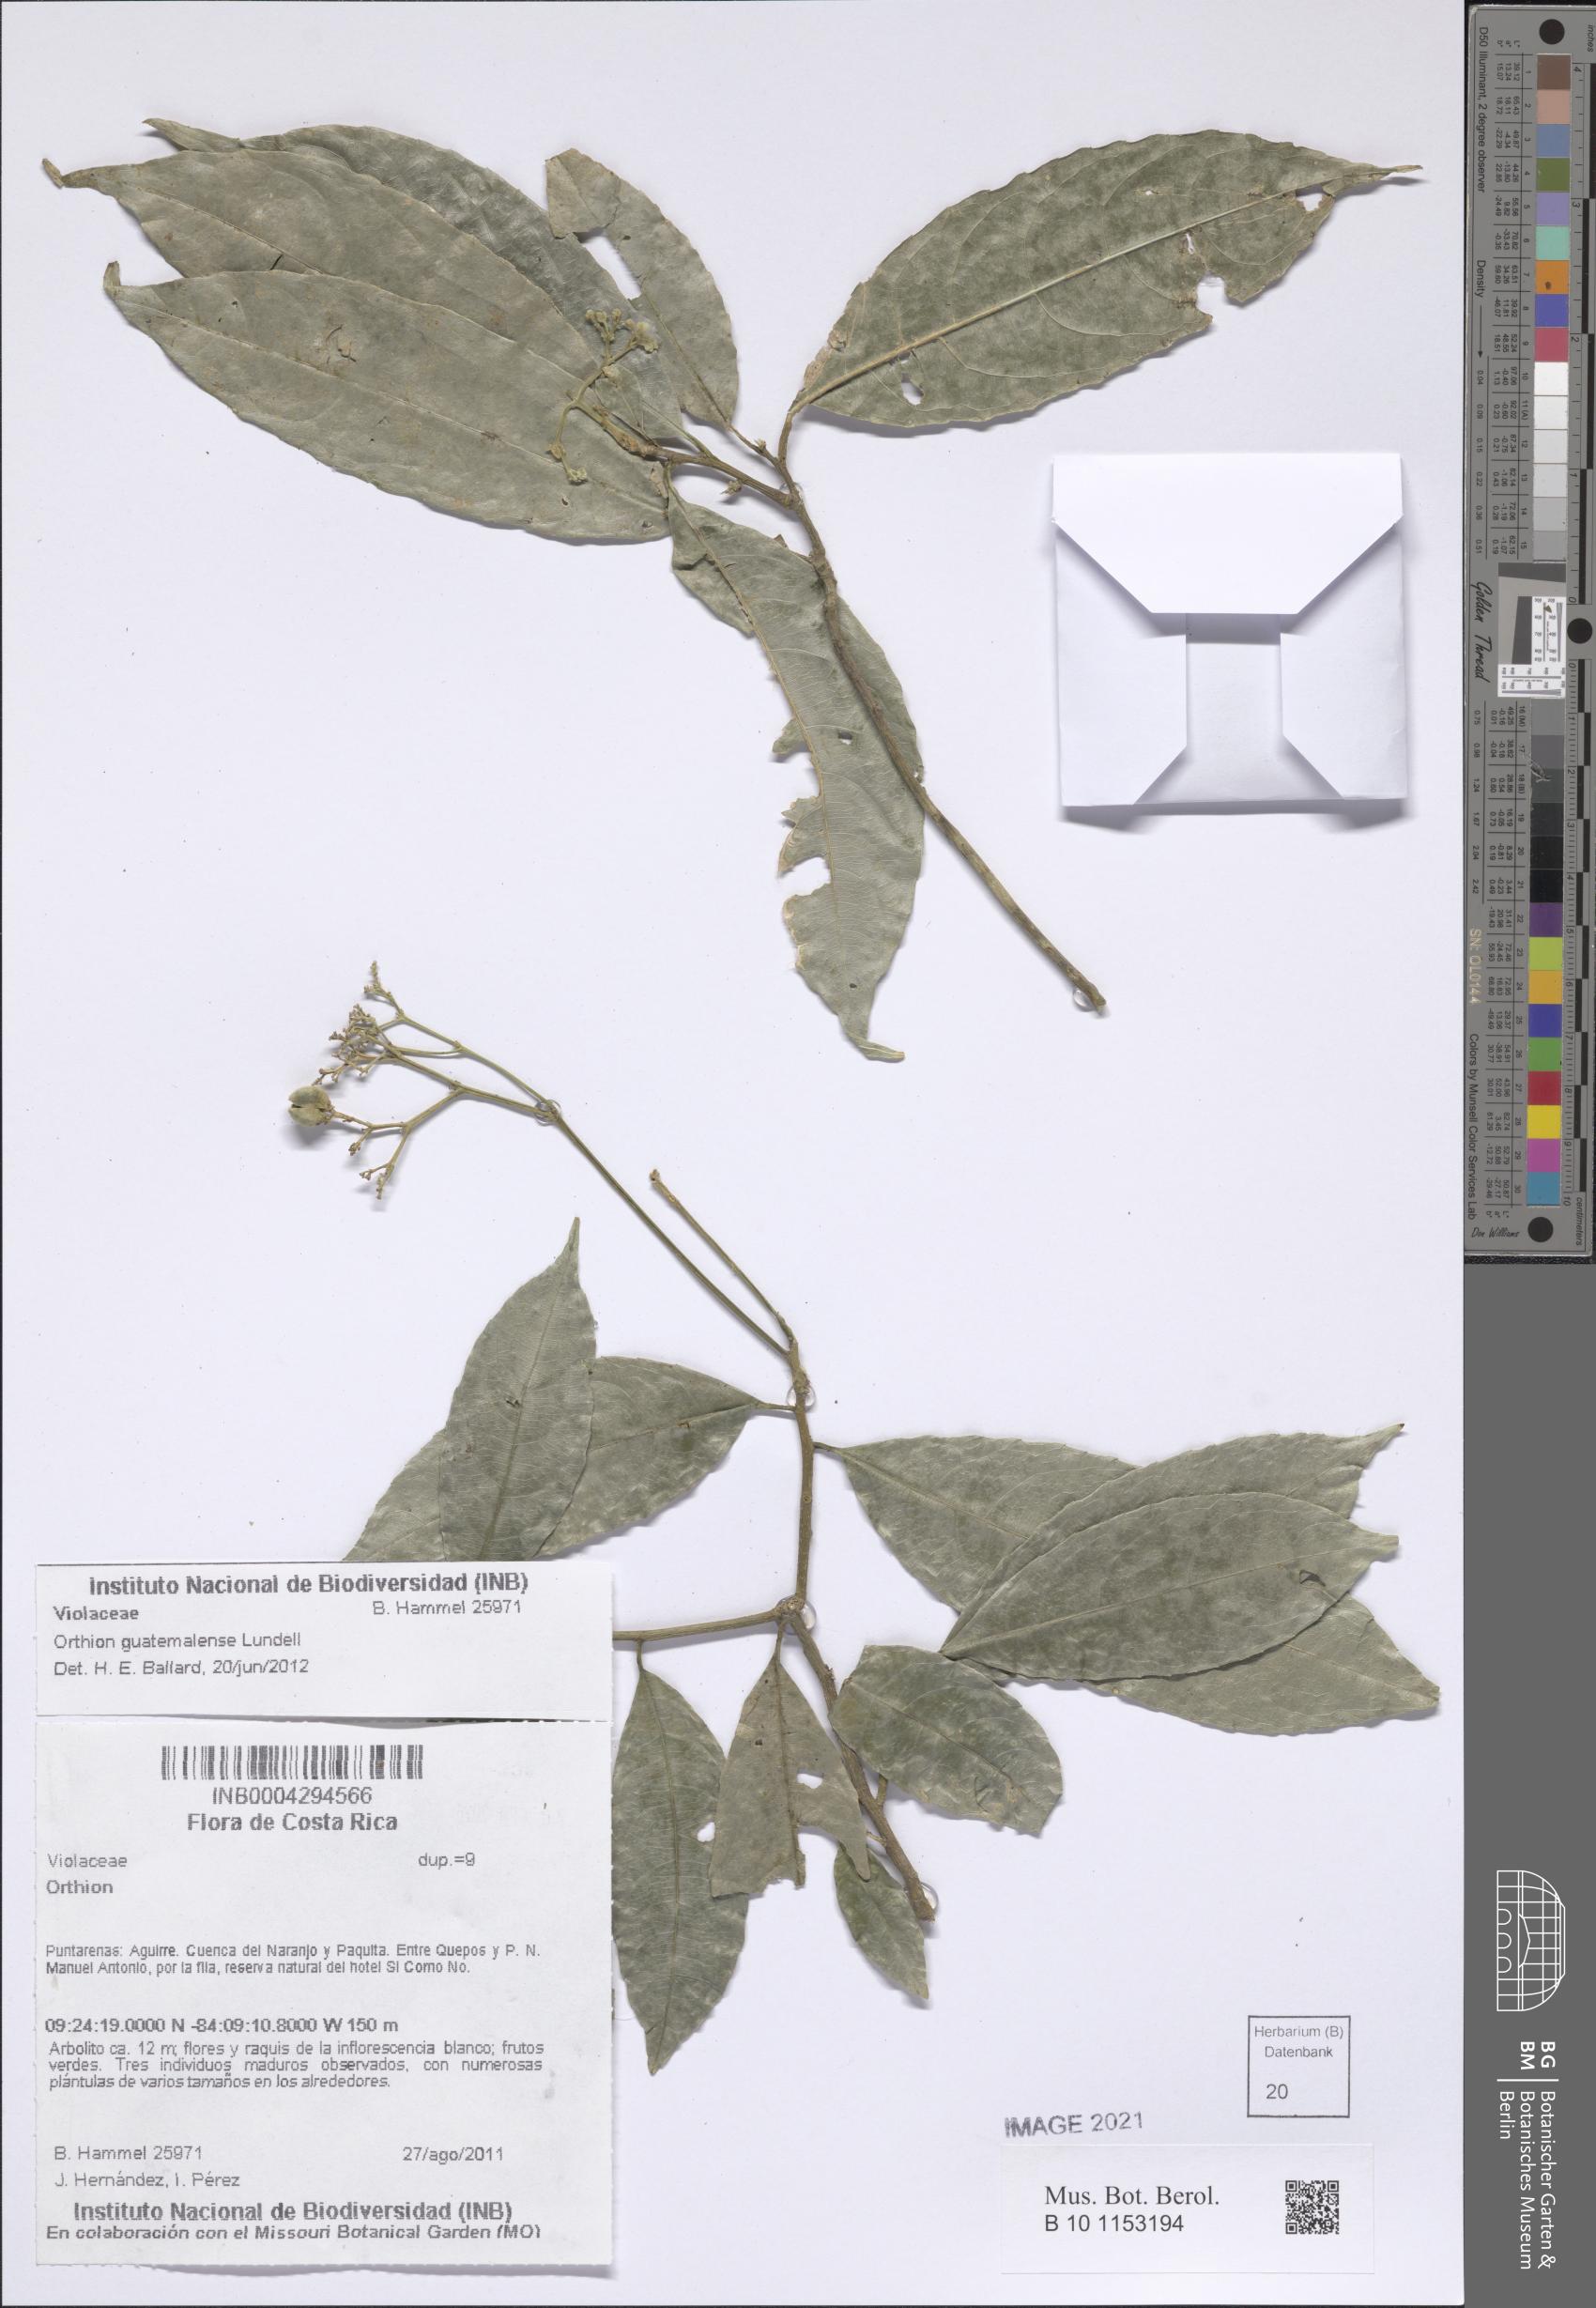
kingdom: Plantae
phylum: Tracheophyta
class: Magnoliopsida
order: Malpighiales
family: Violaceae
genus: Orthion
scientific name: Orthion guatemalense
